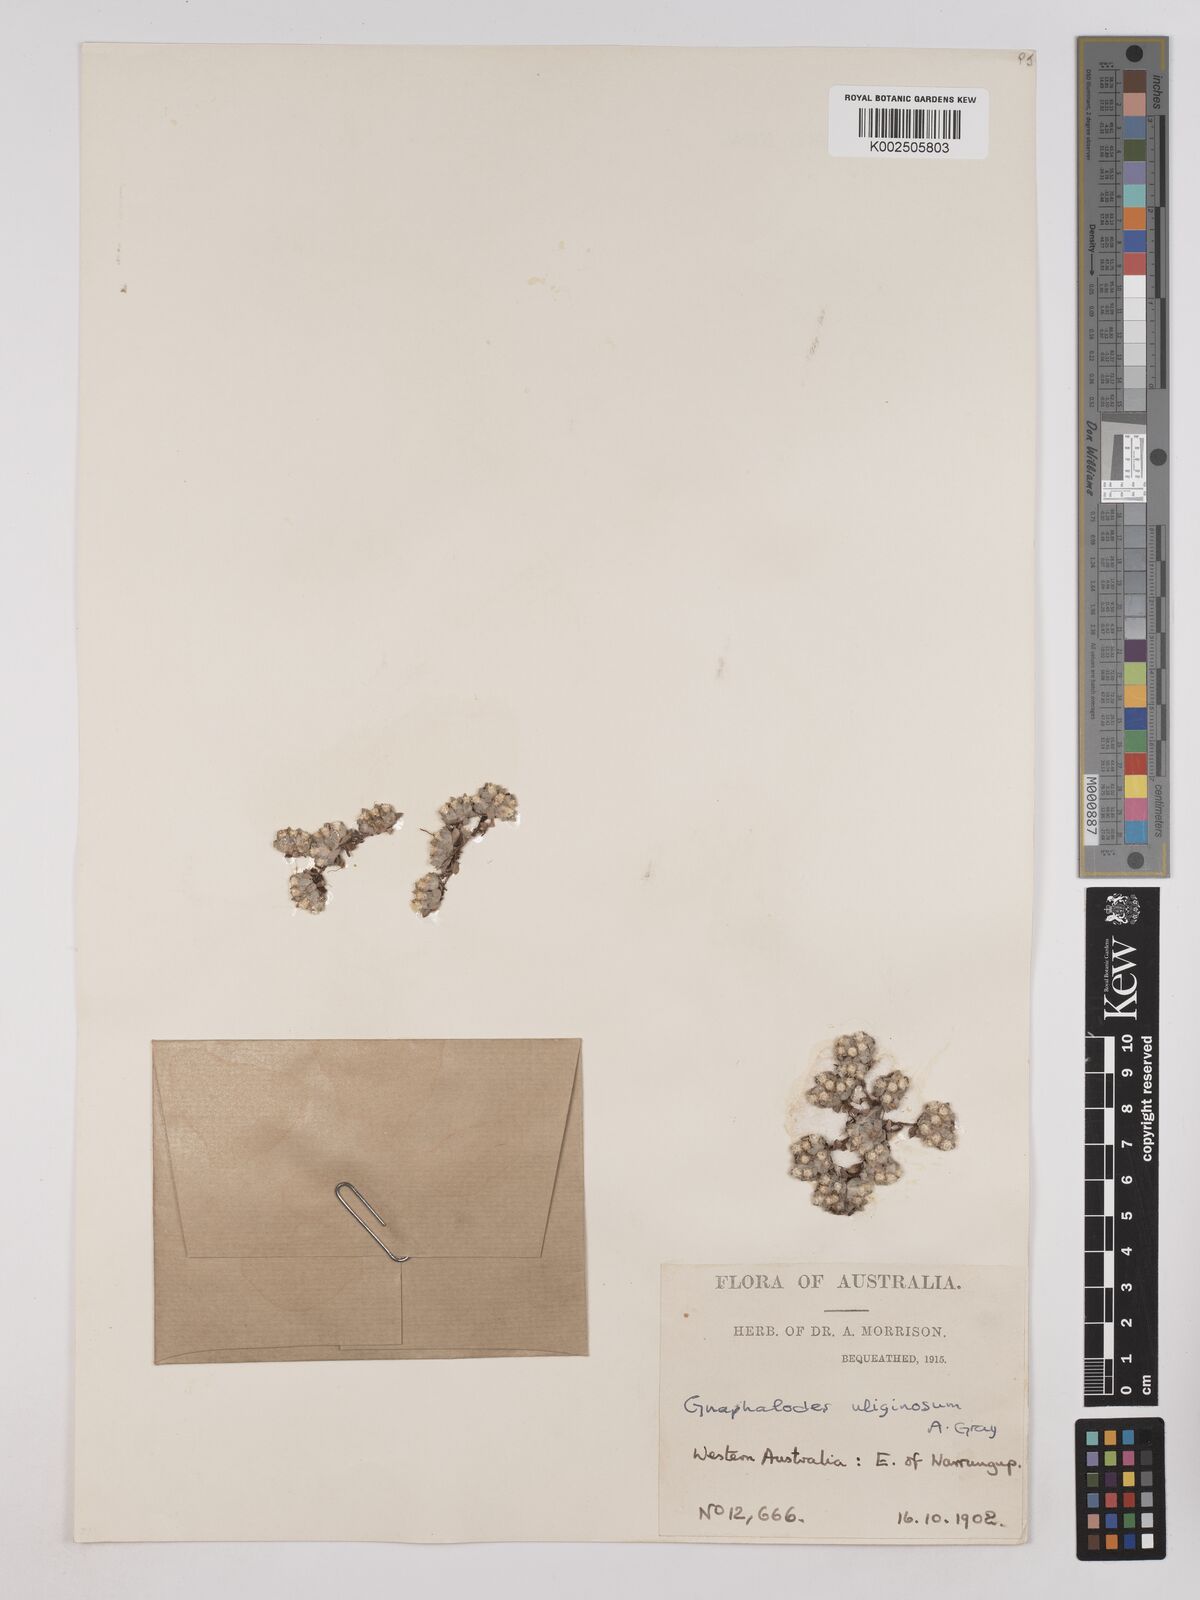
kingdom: Plantae
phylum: Tracheophyta
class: Magnoliopsida
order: Asterales
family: Asteraceae
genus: Actinobole
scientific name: Actinobole uliginosum
